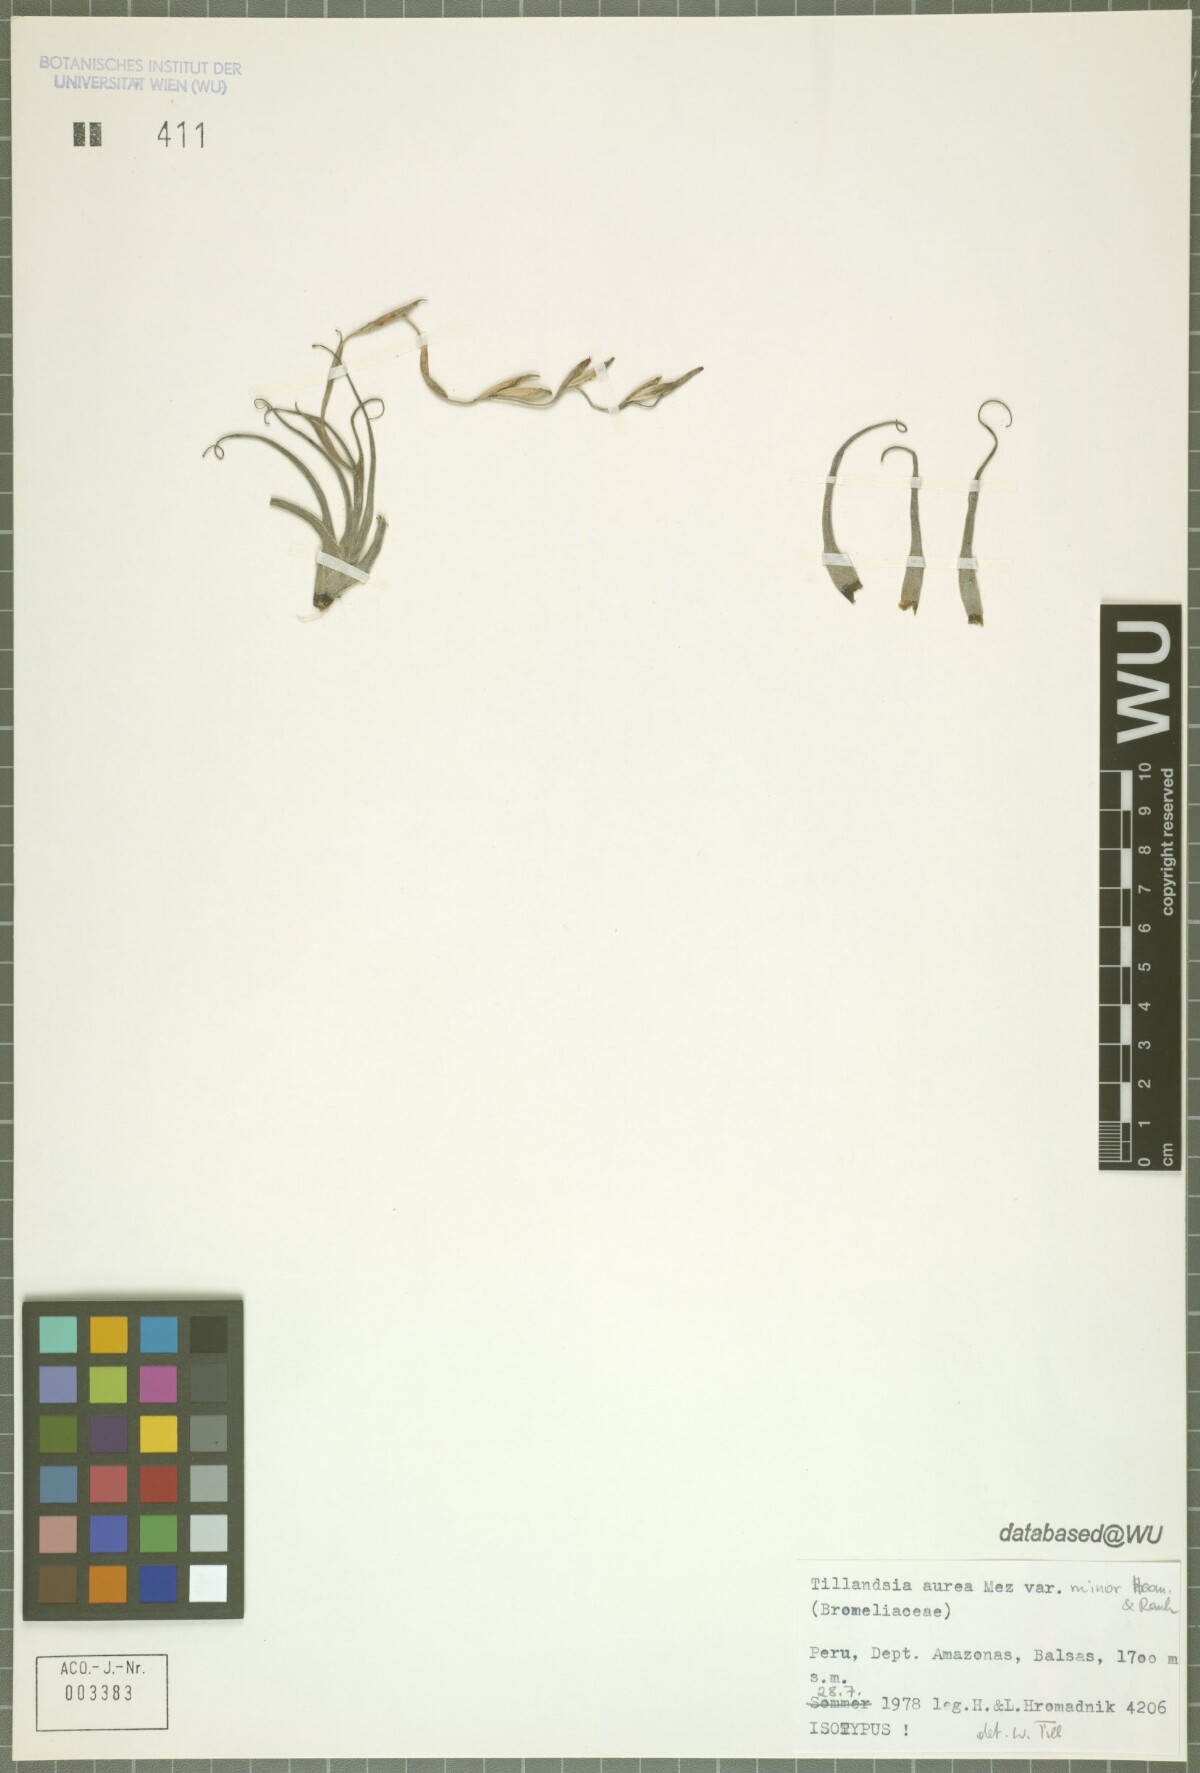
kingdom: Plantae
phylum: Tracheophyta
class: Liliopsida
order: Poales
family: Bromeliaceae
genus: Tillandsia
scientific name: Tillandsia aurea
